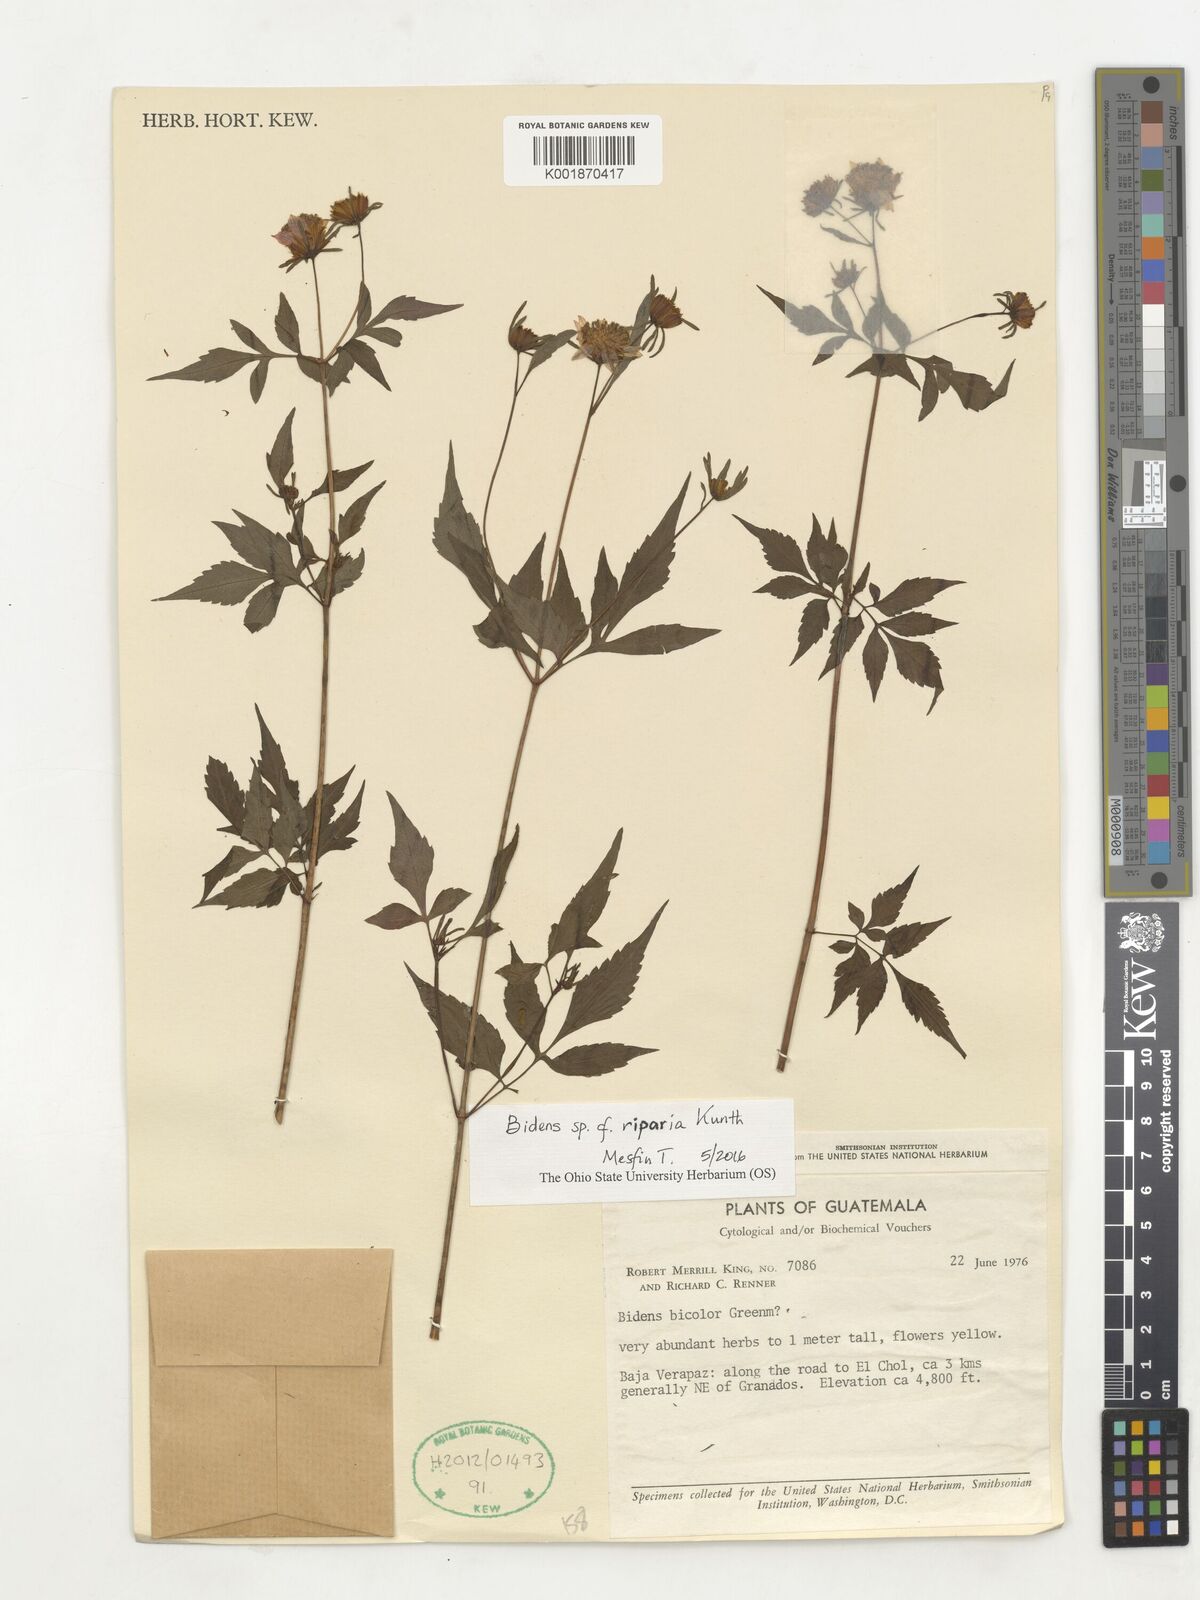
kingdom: Plantae
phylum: Tracheophyta
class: Magnoliopsida
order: Asterales
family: Asteraceae
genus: Bidens
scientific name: Bidens riparia
